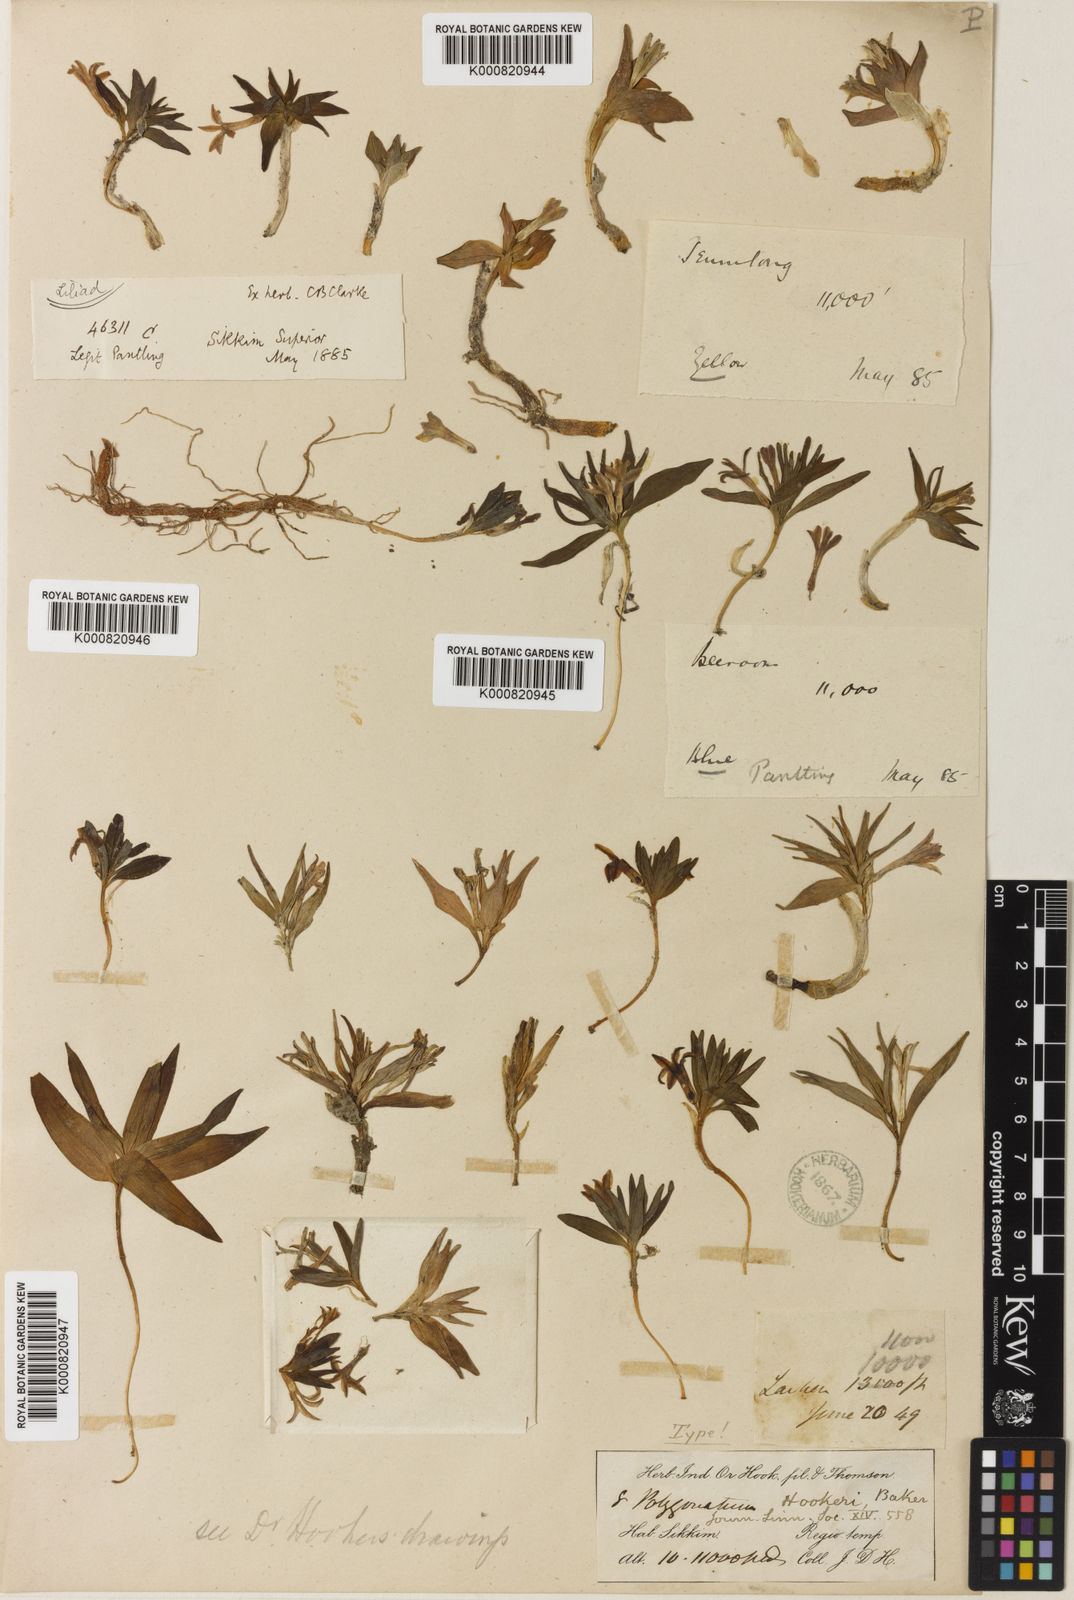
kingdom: Plantae
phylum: Tracheophyta
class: Liliopsida
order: Asparagales
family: Asparagaceae
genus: Polygonatum
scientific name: Polygonatum hookeri
